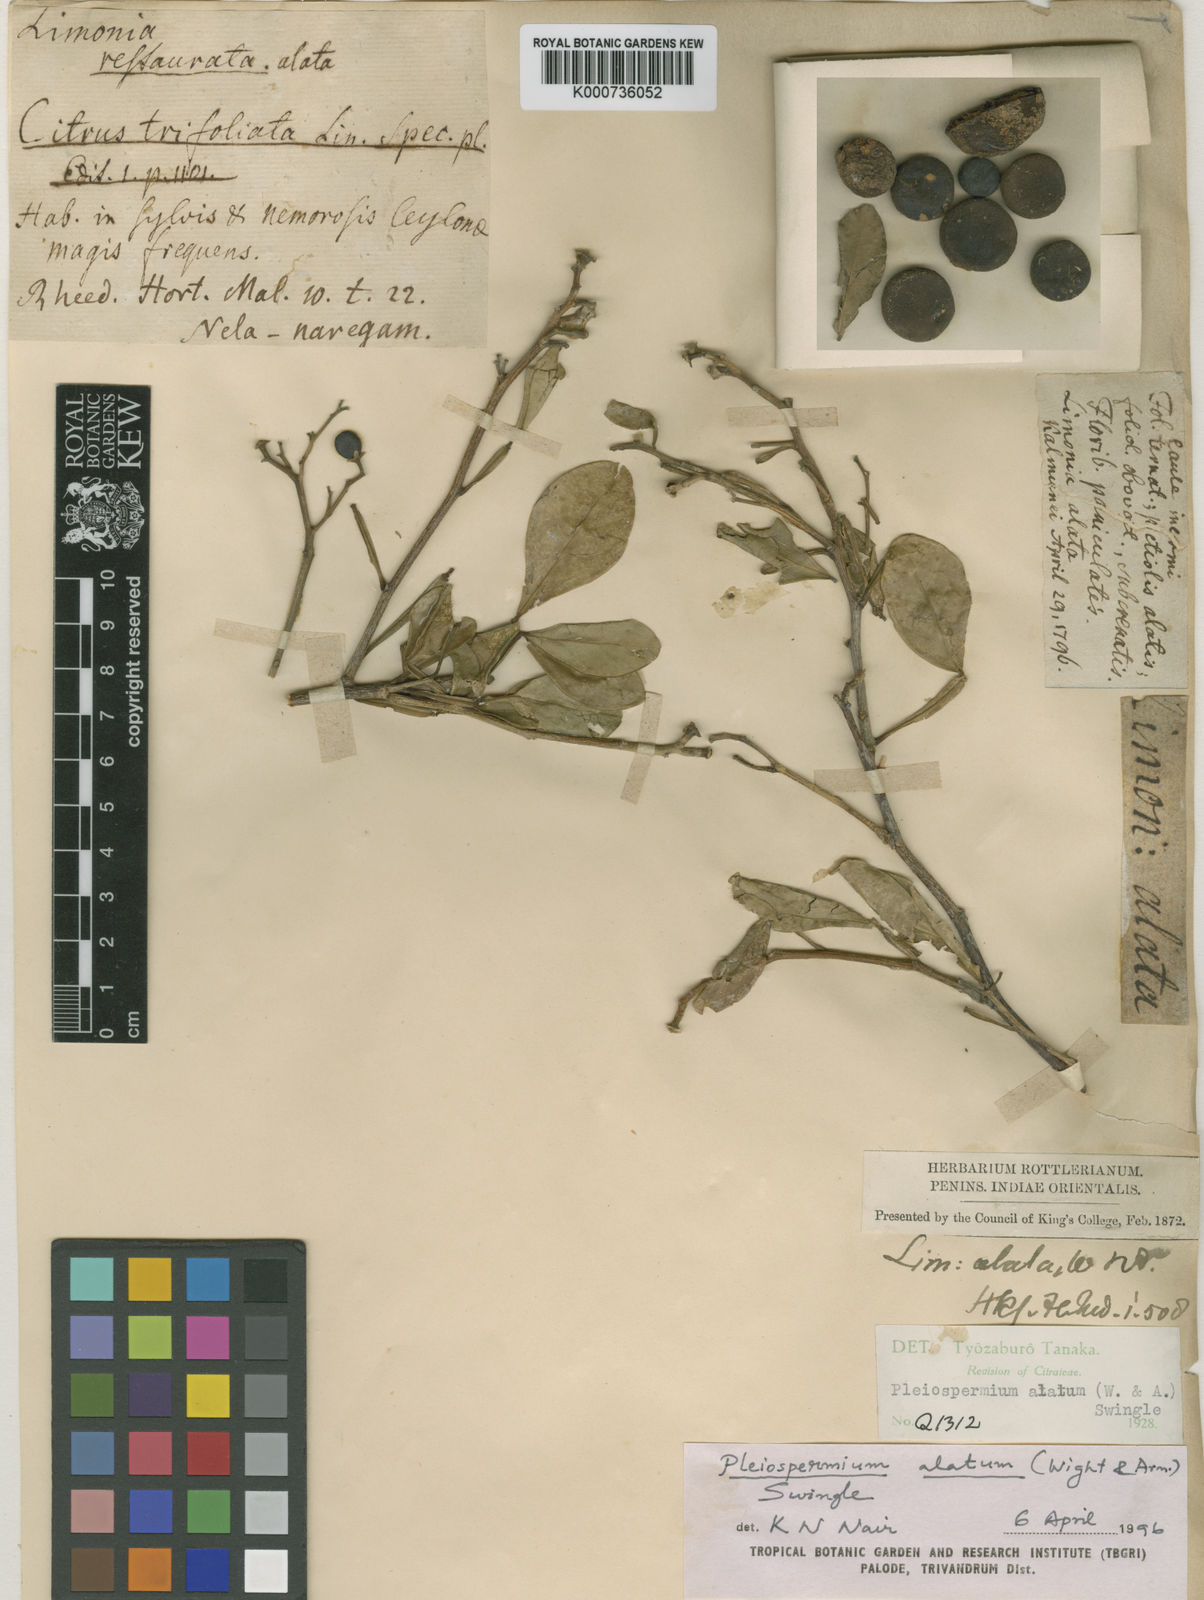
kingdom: Plantae
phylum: Tracheophyta
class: Magnoliopsida
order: Sapindales
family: Rutaceae
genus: Pleiospermium
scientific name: Pleiospermium alatum
